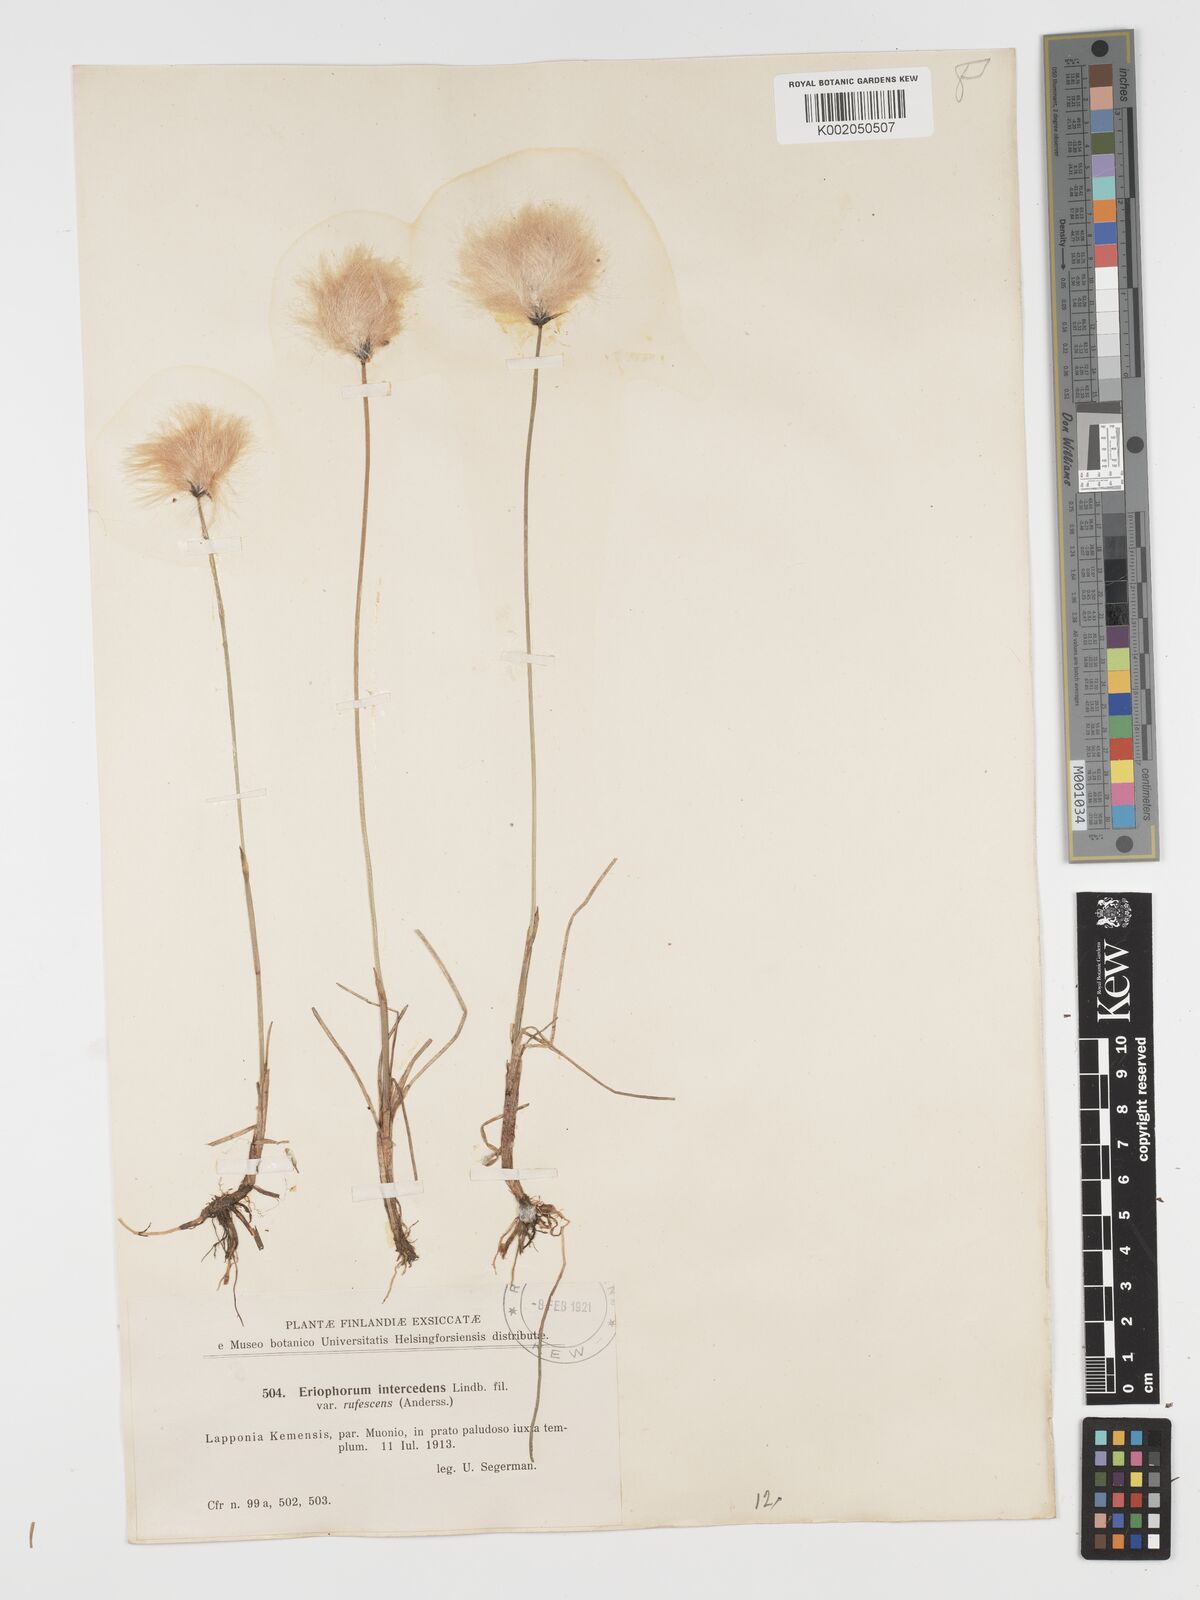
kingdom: Plantae
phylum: Tracheophyta
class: Liliopsida
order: Poales
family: Cyperaceae
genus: Eriophorum
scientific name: Eriophorum medium
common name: Intermediate cottongrass
